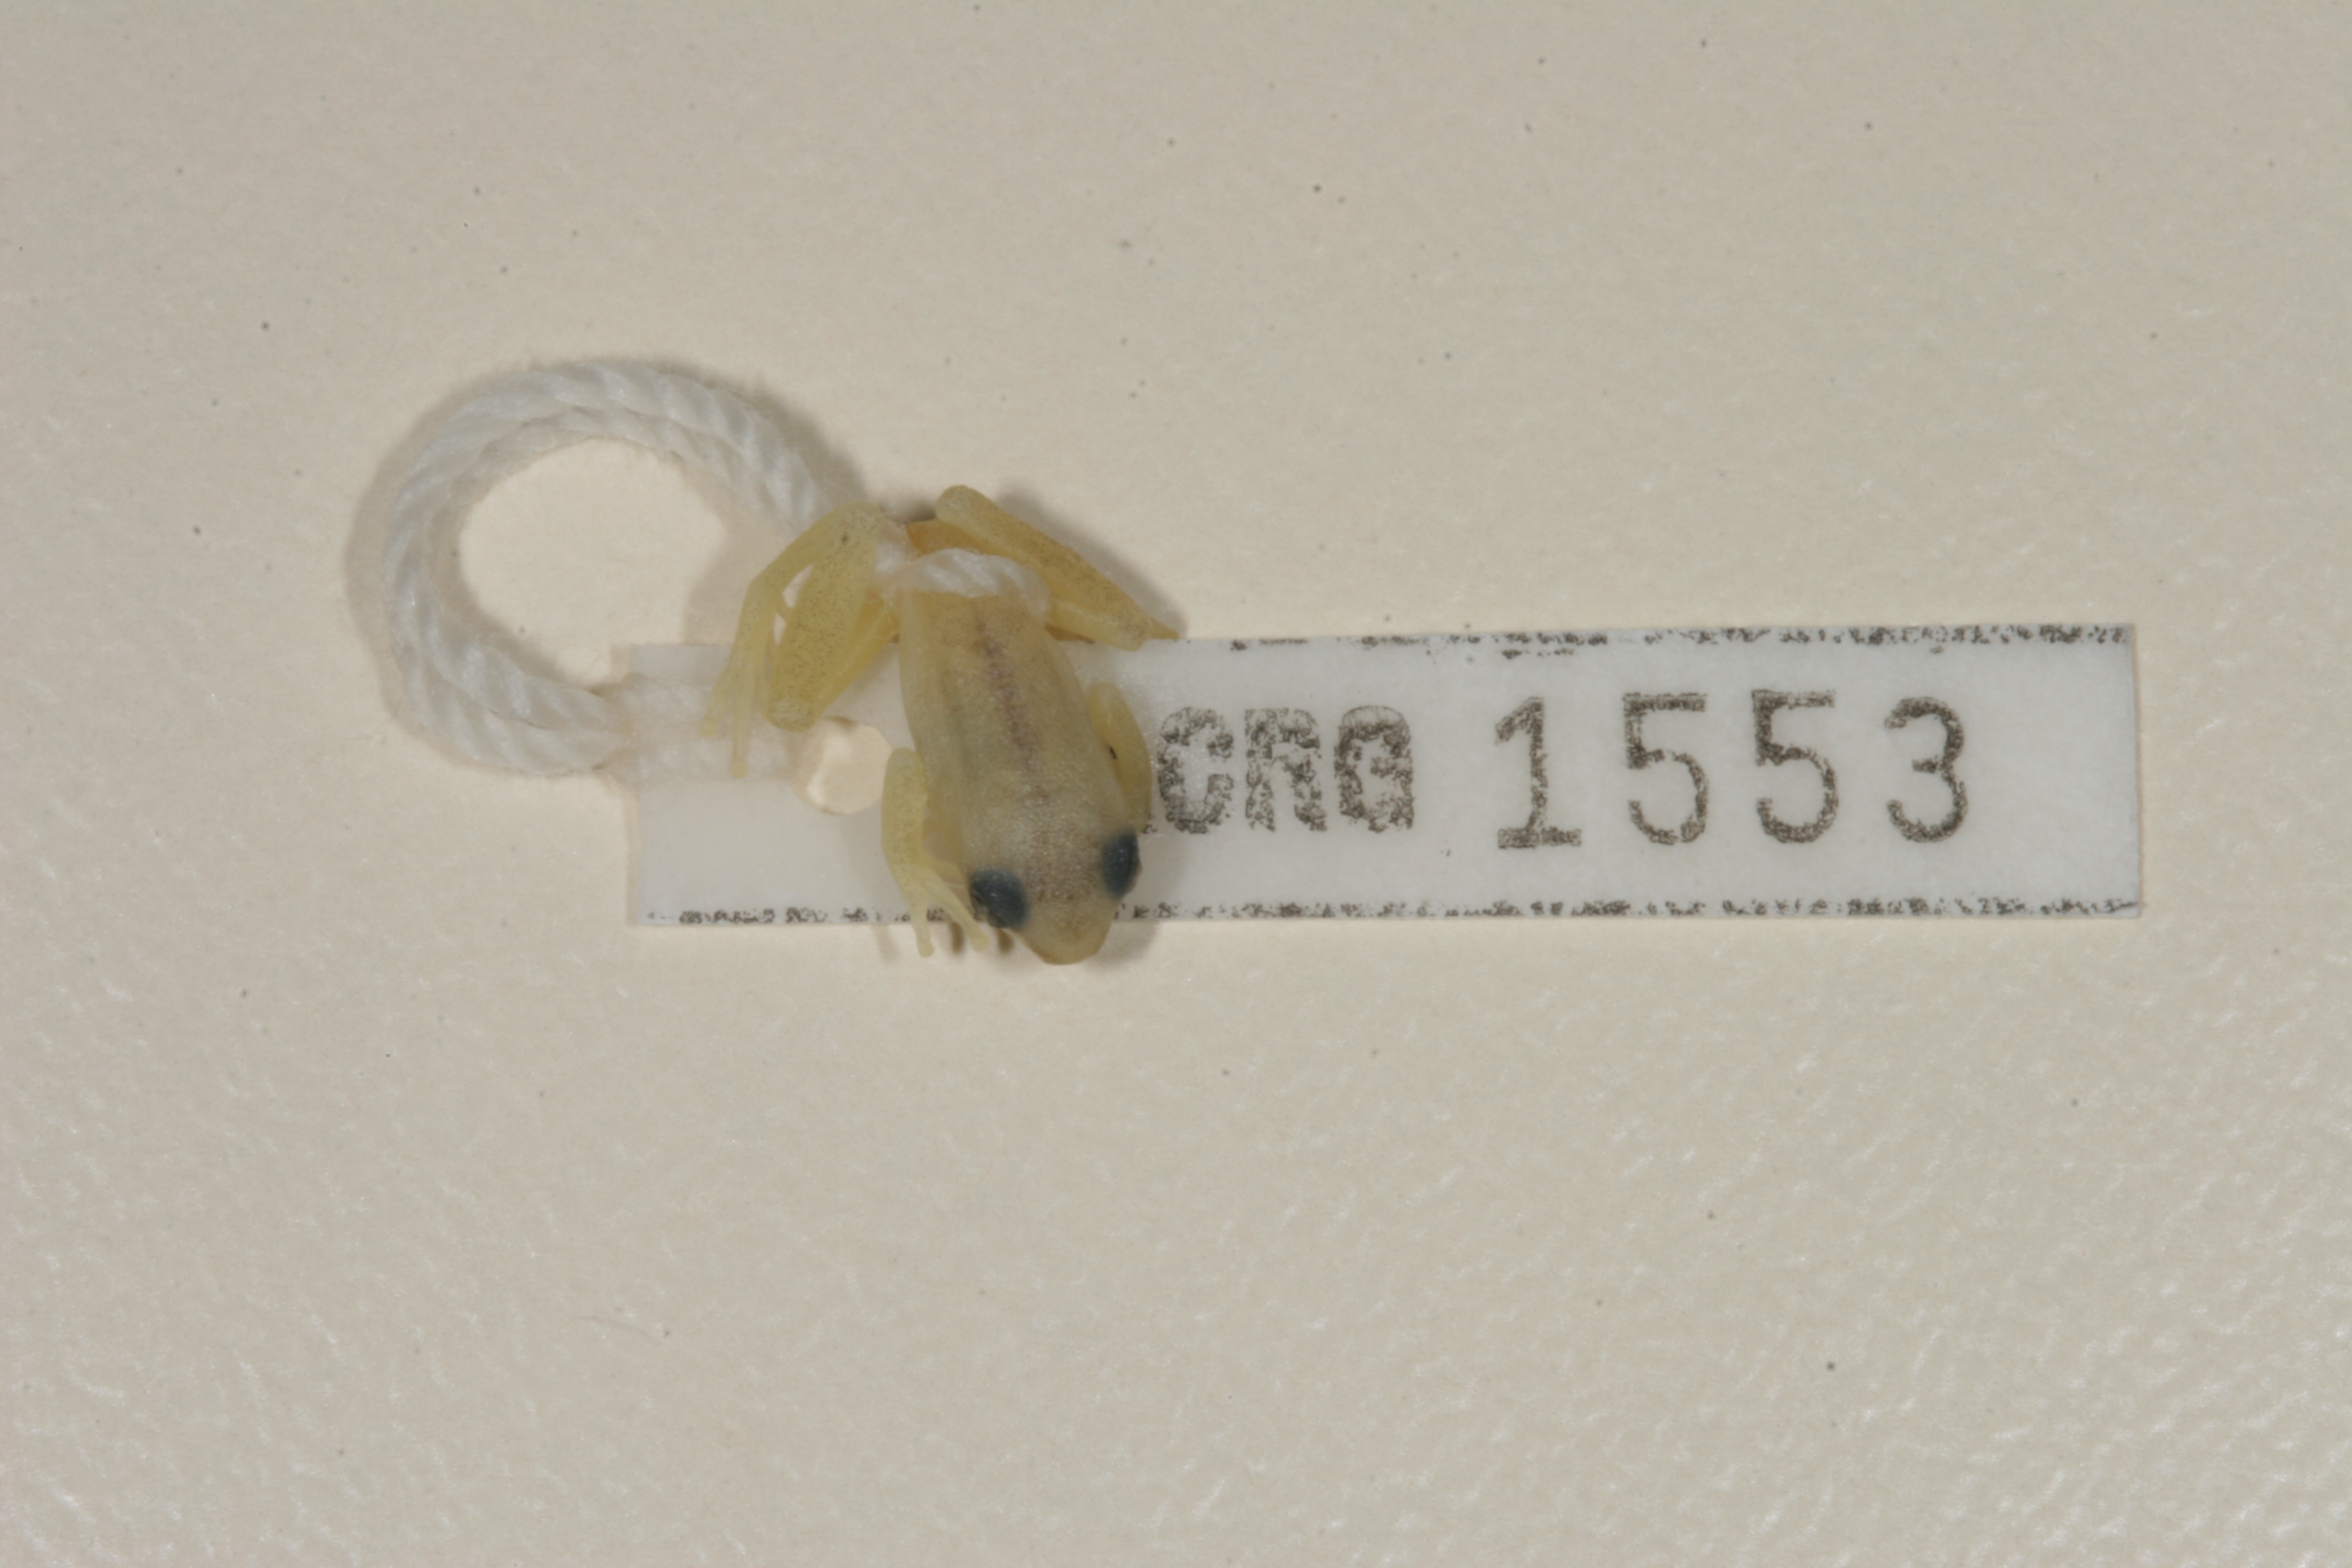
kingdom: Animalia
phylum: Chordata
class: Amphibia
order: Anura
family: Hyperoliidae
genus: Hyperolius
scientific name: Hyperolius marmoratus
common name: Painted reed frog
